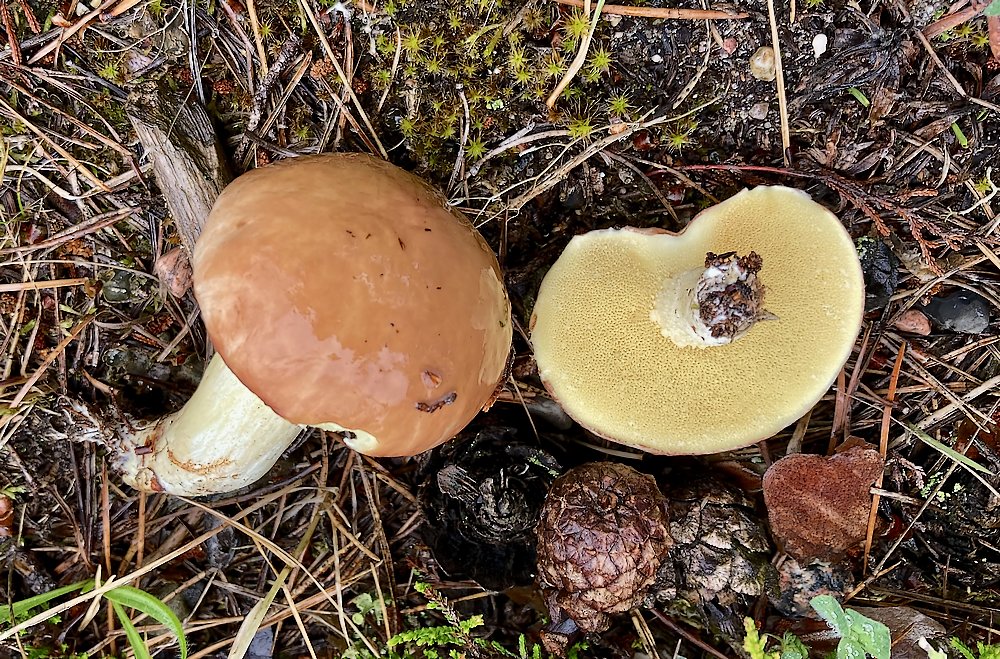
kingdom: Fungi
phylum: Basidiomycota
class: Agaricomycetes
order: Boletales
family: Suillaceae
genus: Suillus
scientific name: Suillus granulatus
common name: kornet slimrørhat
